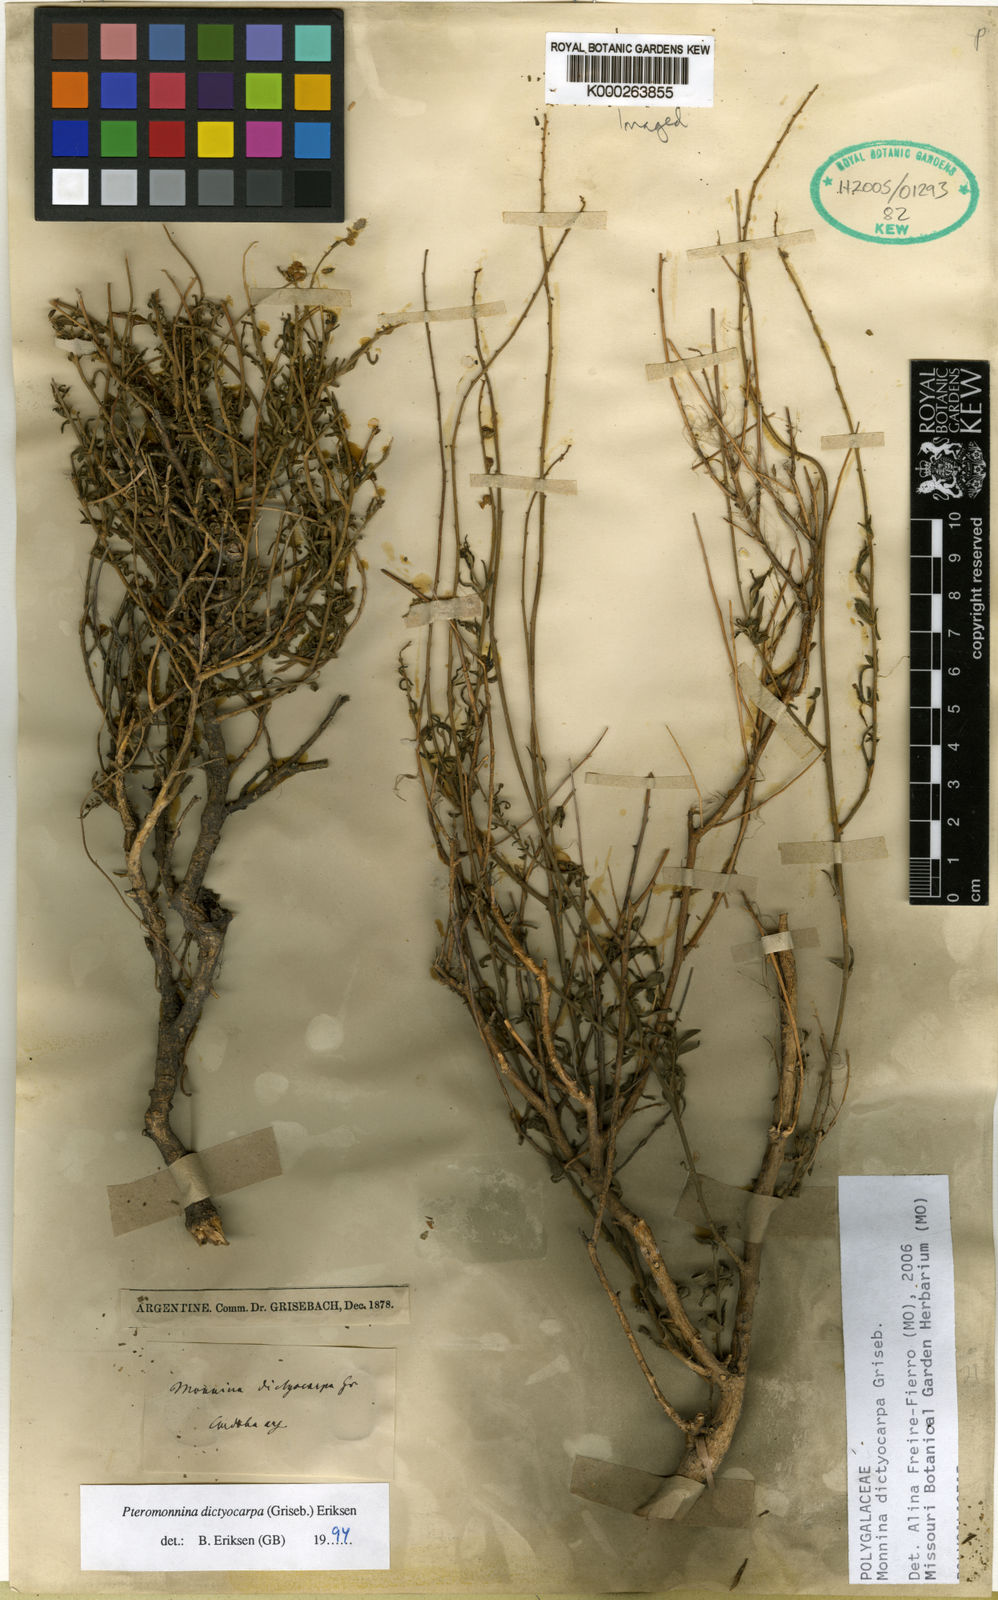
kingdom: Plantae
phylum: Tracheophyta
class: Magnoliopsida
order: Fabales
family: Polygalaceae
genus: Monnina
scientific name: Monnina
